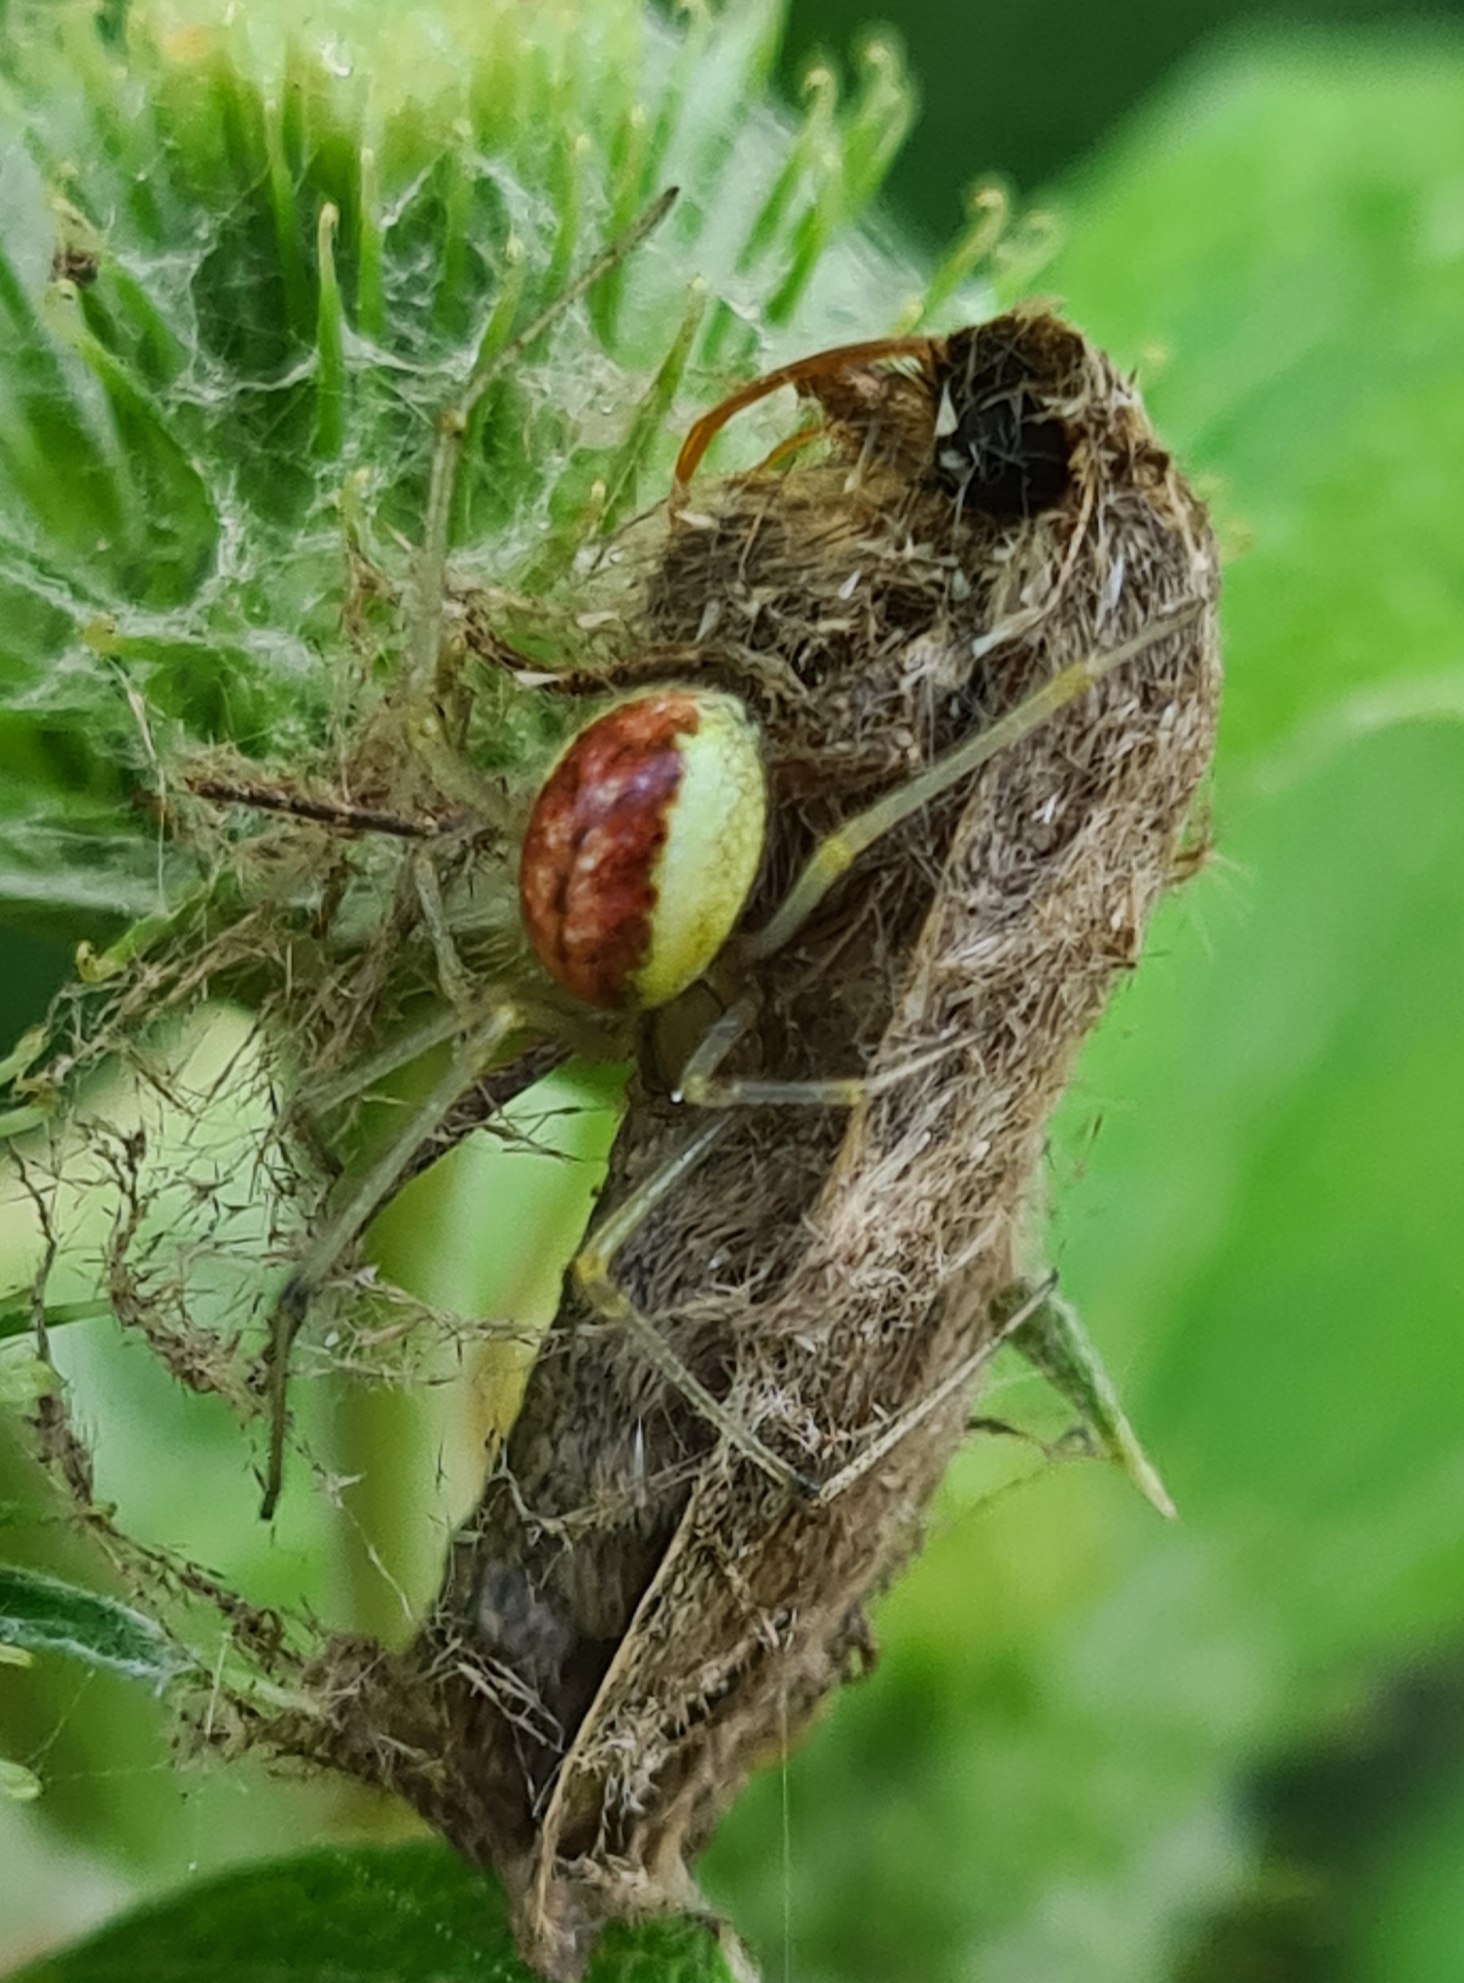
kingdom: Animalia
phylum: Arthropoda
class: Arachnida
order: Araneae
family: Theridiidae
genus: Enoplognatha
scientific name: Enoplognatha ovata
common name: Perleedderkop
